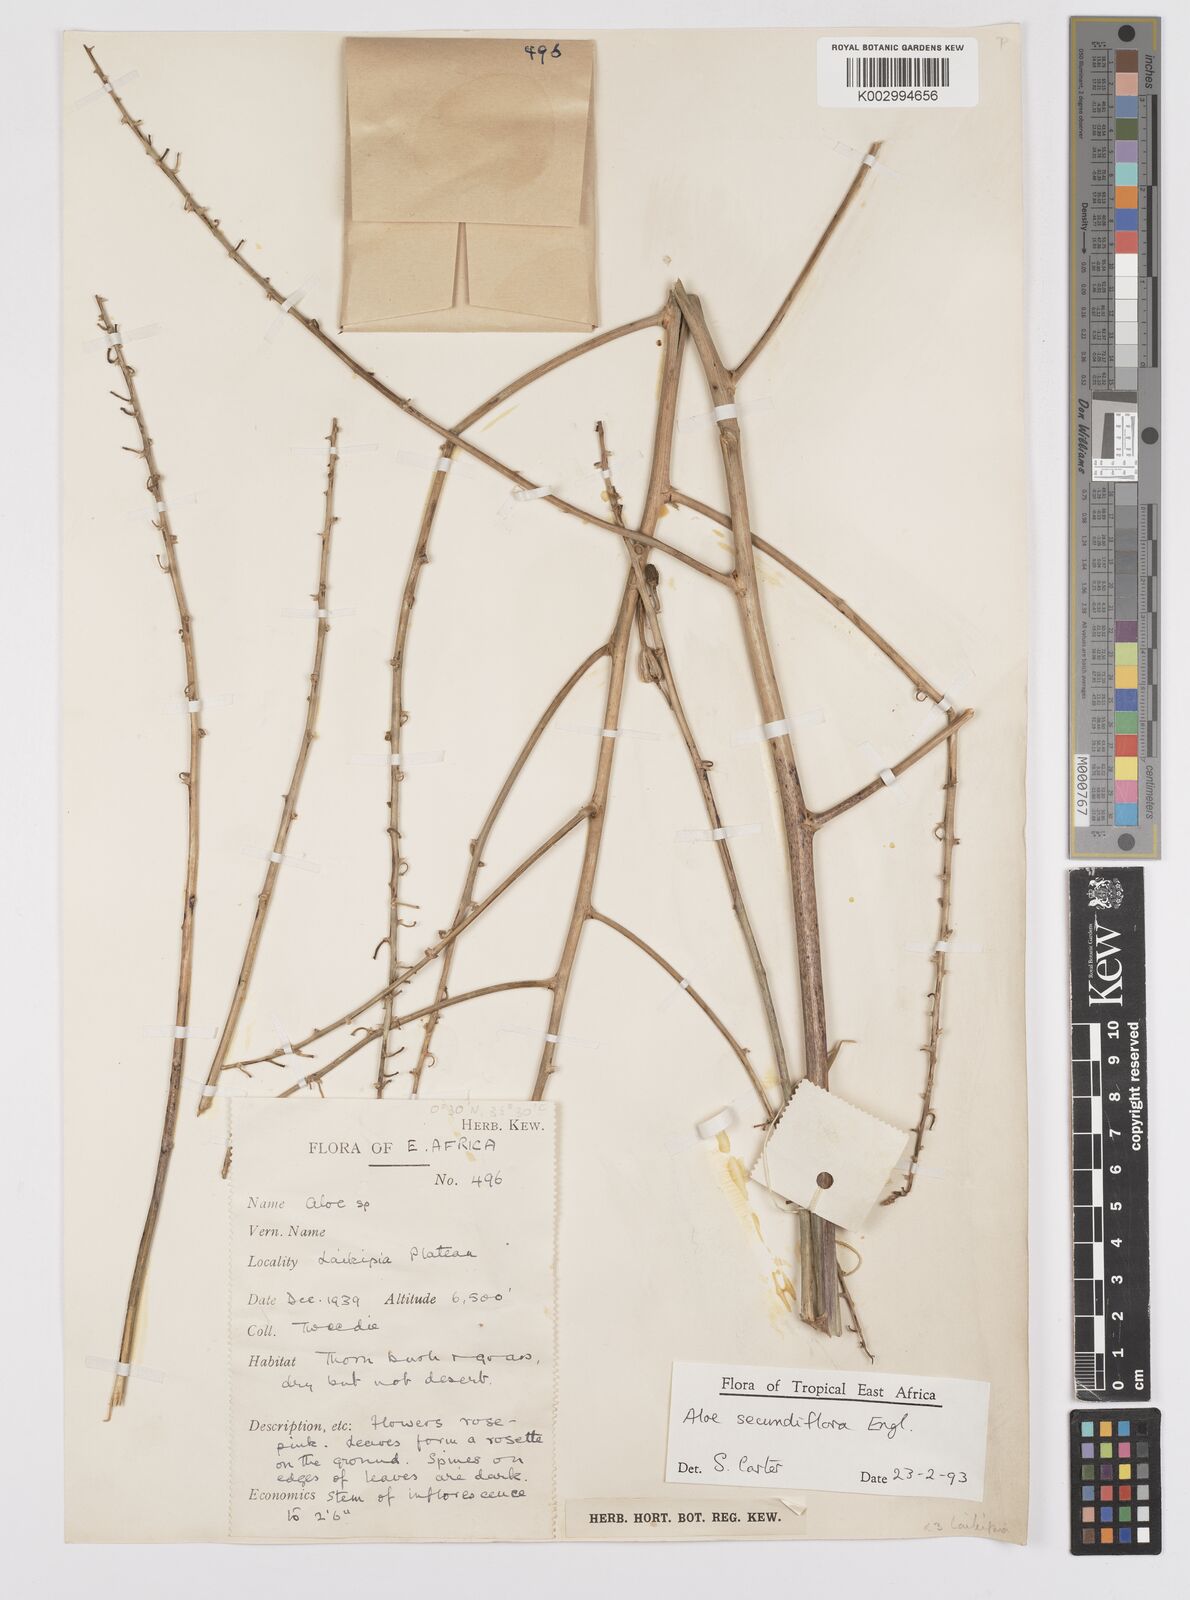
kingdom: Plantae
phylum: Tracheophyta
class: Liliopsida
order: Asparagales
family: Asphodelaceae
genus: Aloe
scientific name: Aloe secundiflora
